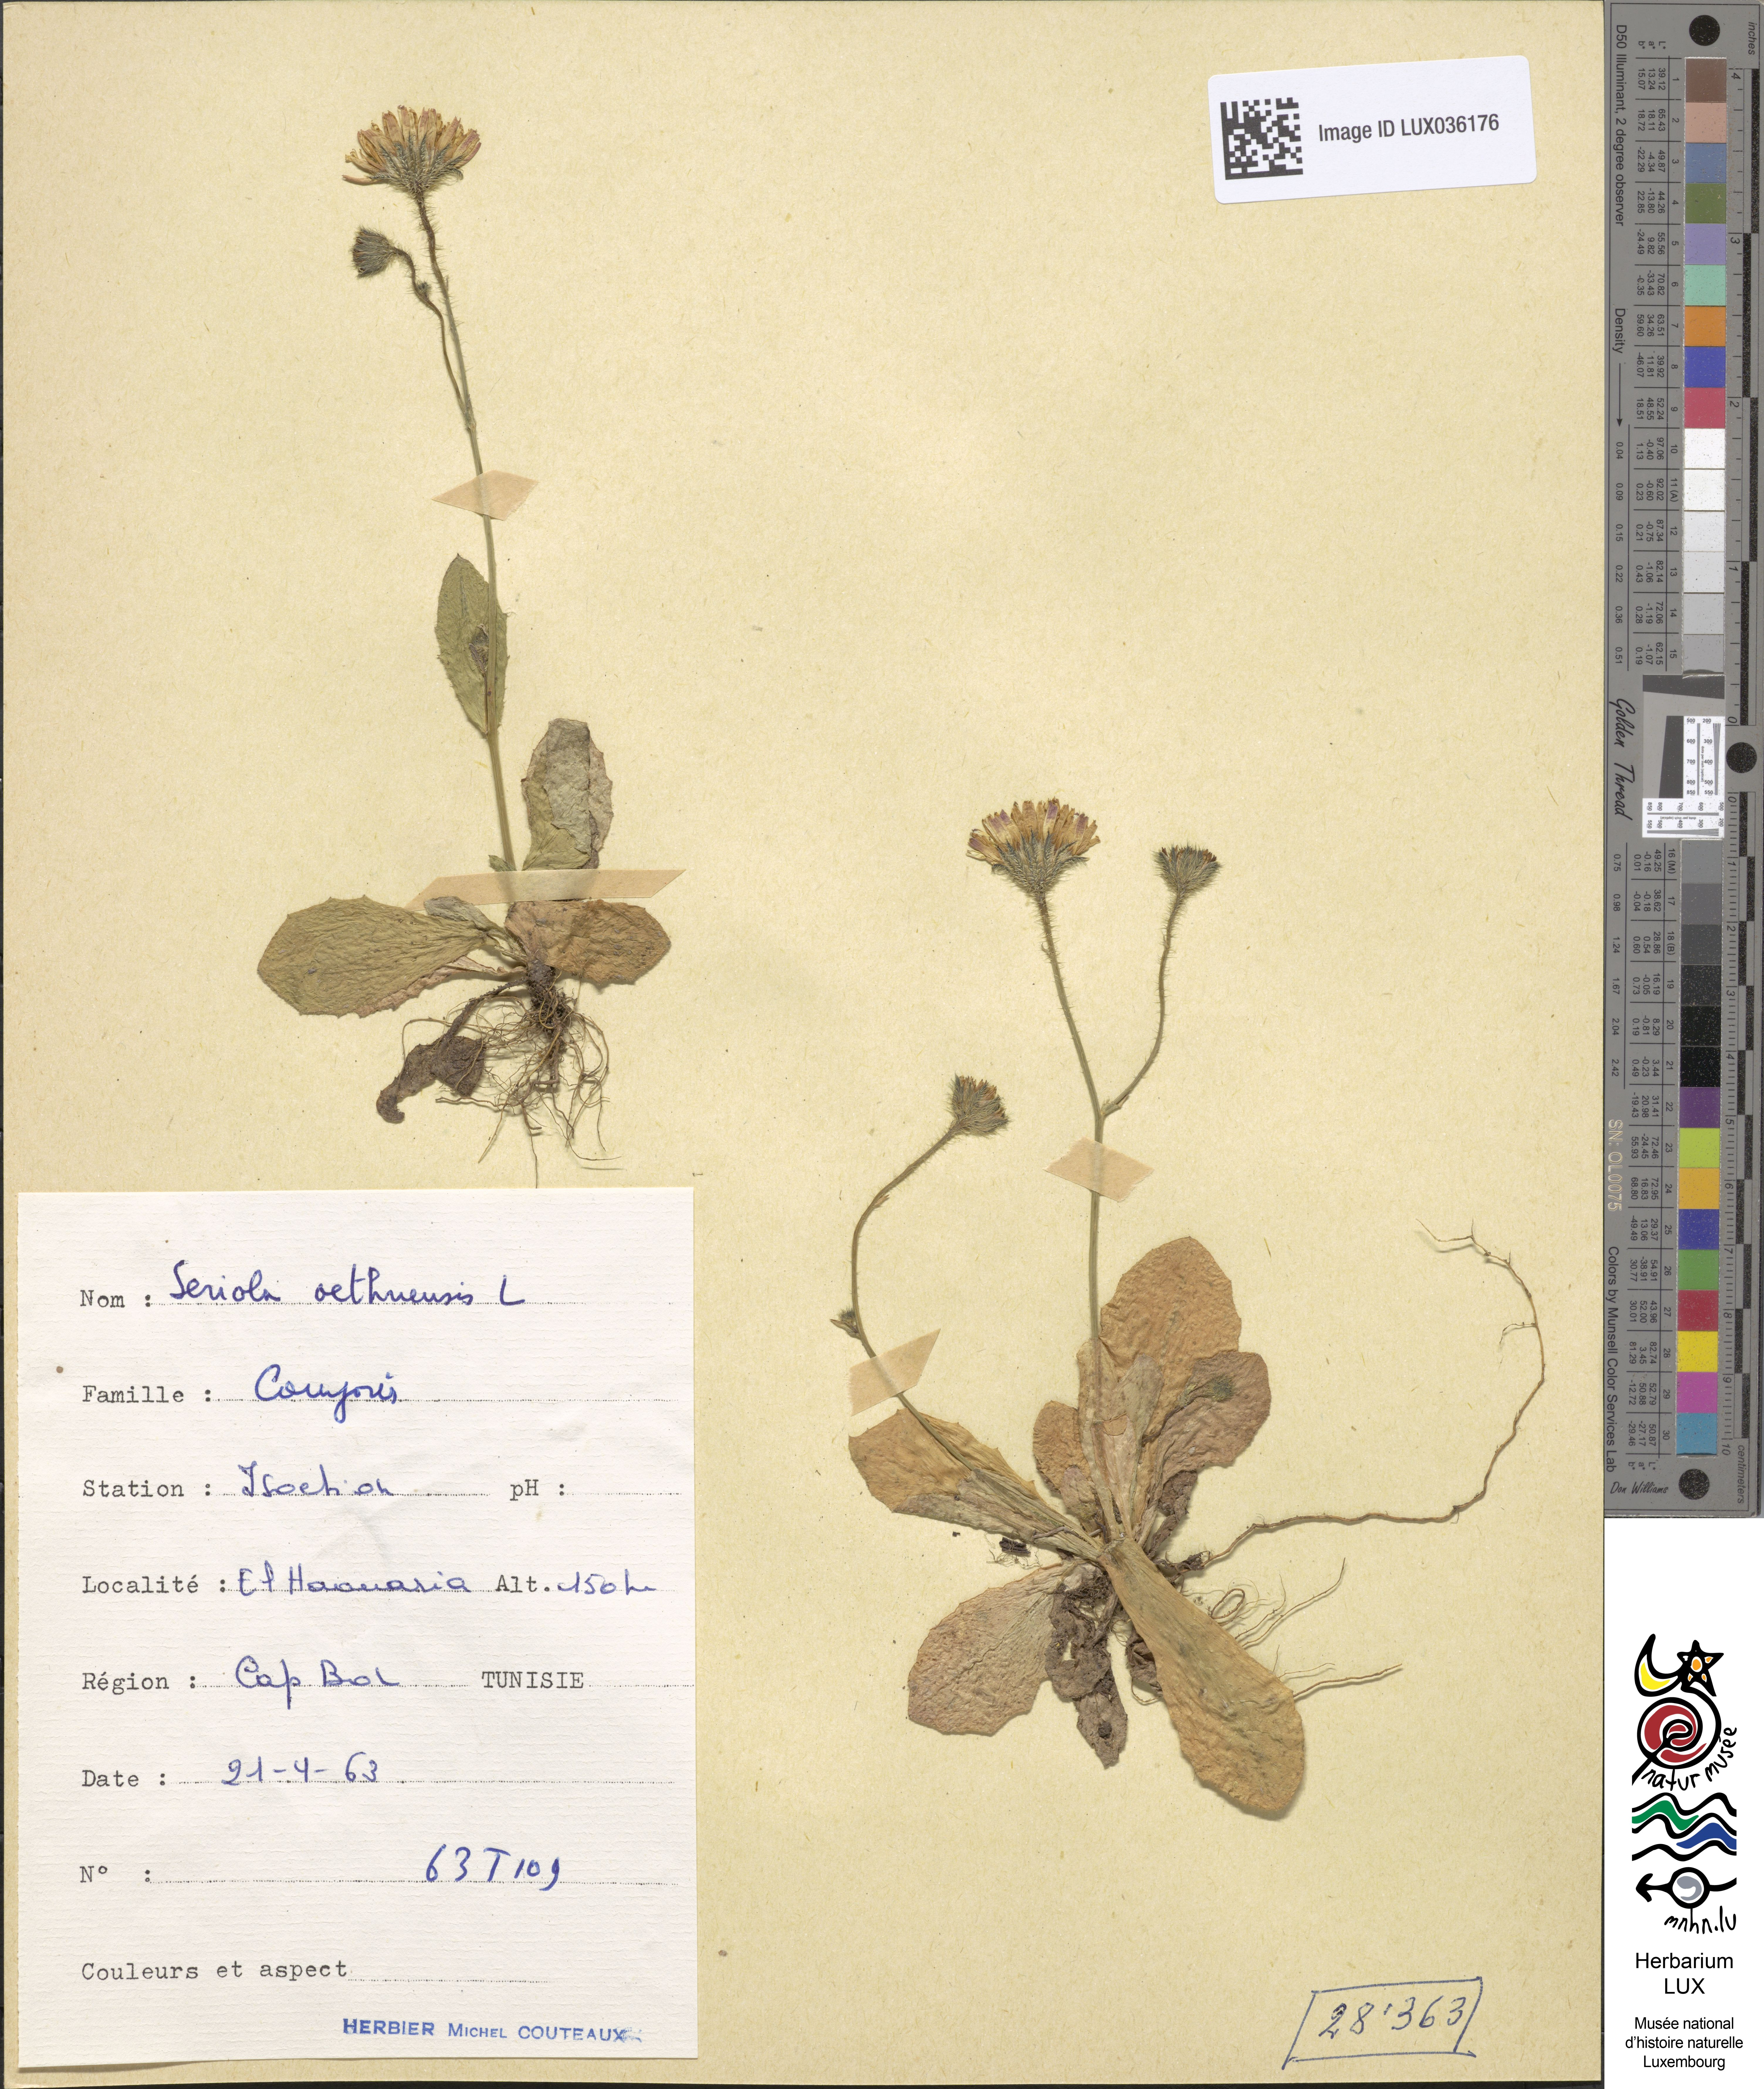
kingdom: Plantae
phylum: Tracheophyta
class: Magnoliopsida
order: Asterales
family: Asteraceae
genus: Hypochoeris
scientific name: Hypochoeris
